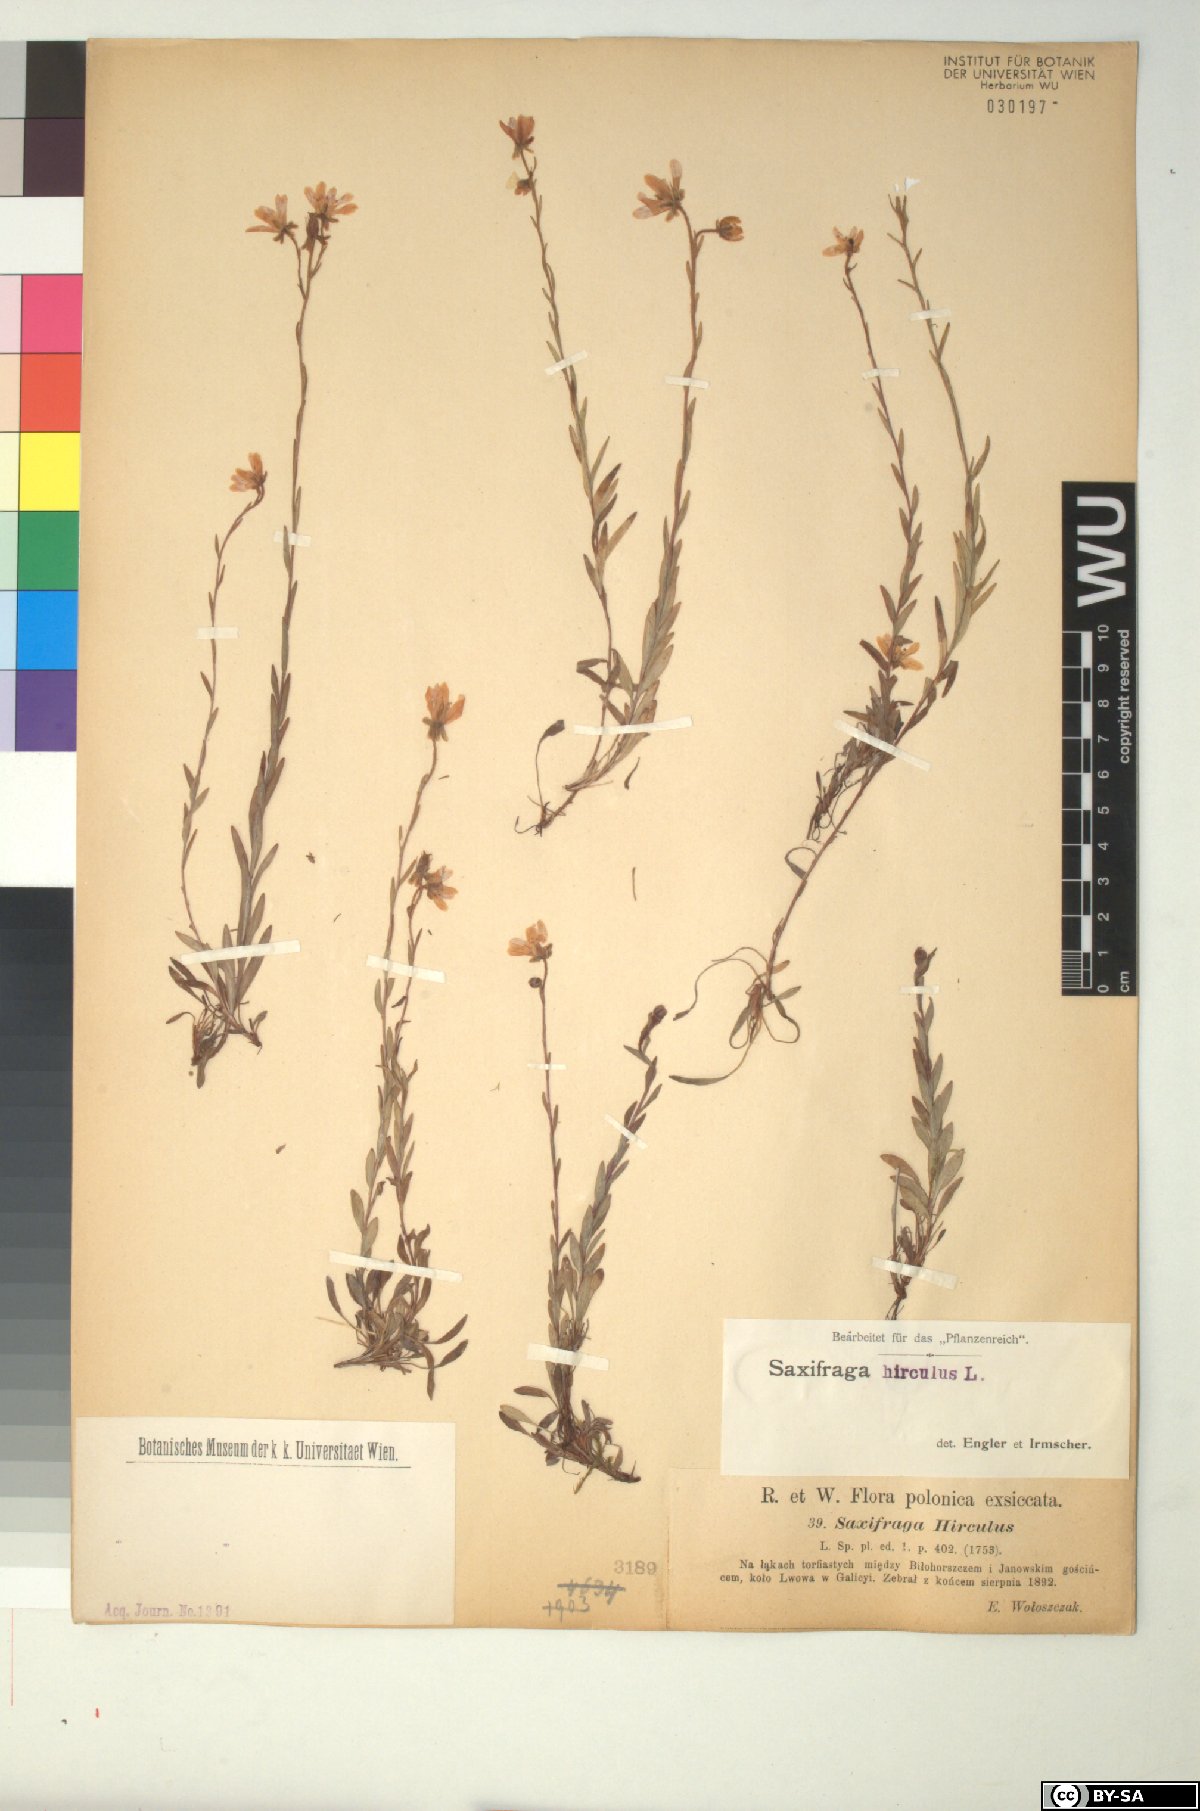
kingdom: Plantae
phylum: Tracheophyta
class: Magnoliopsida
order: Saxifragales
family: Saxifragaceae
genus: Saxifraga
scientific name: Saxifraga hirculus
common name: Yellow marsh saxifrage
